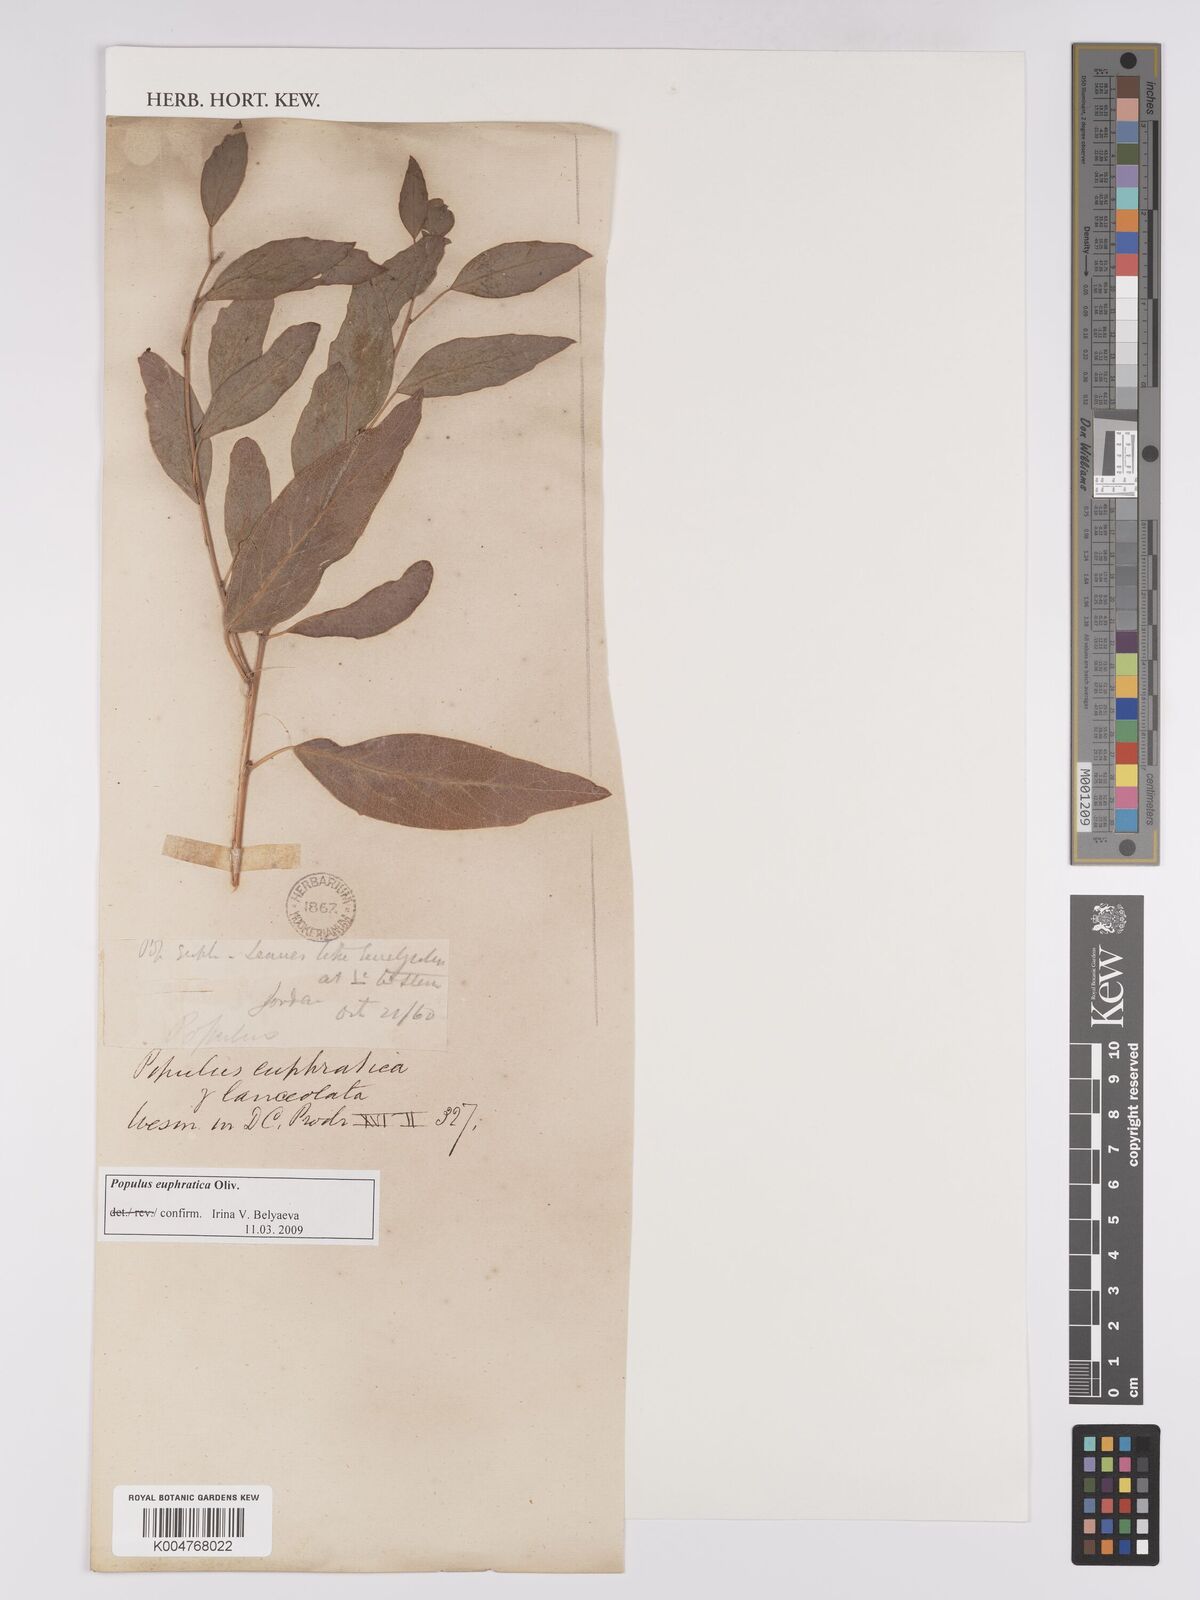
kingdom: Plantae
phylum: Tracheophyta
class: Magnoliopsida
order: Malpighiales
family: Salicaceae
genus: Populus
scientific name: Populus euphratica
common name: Euphrates poplar
